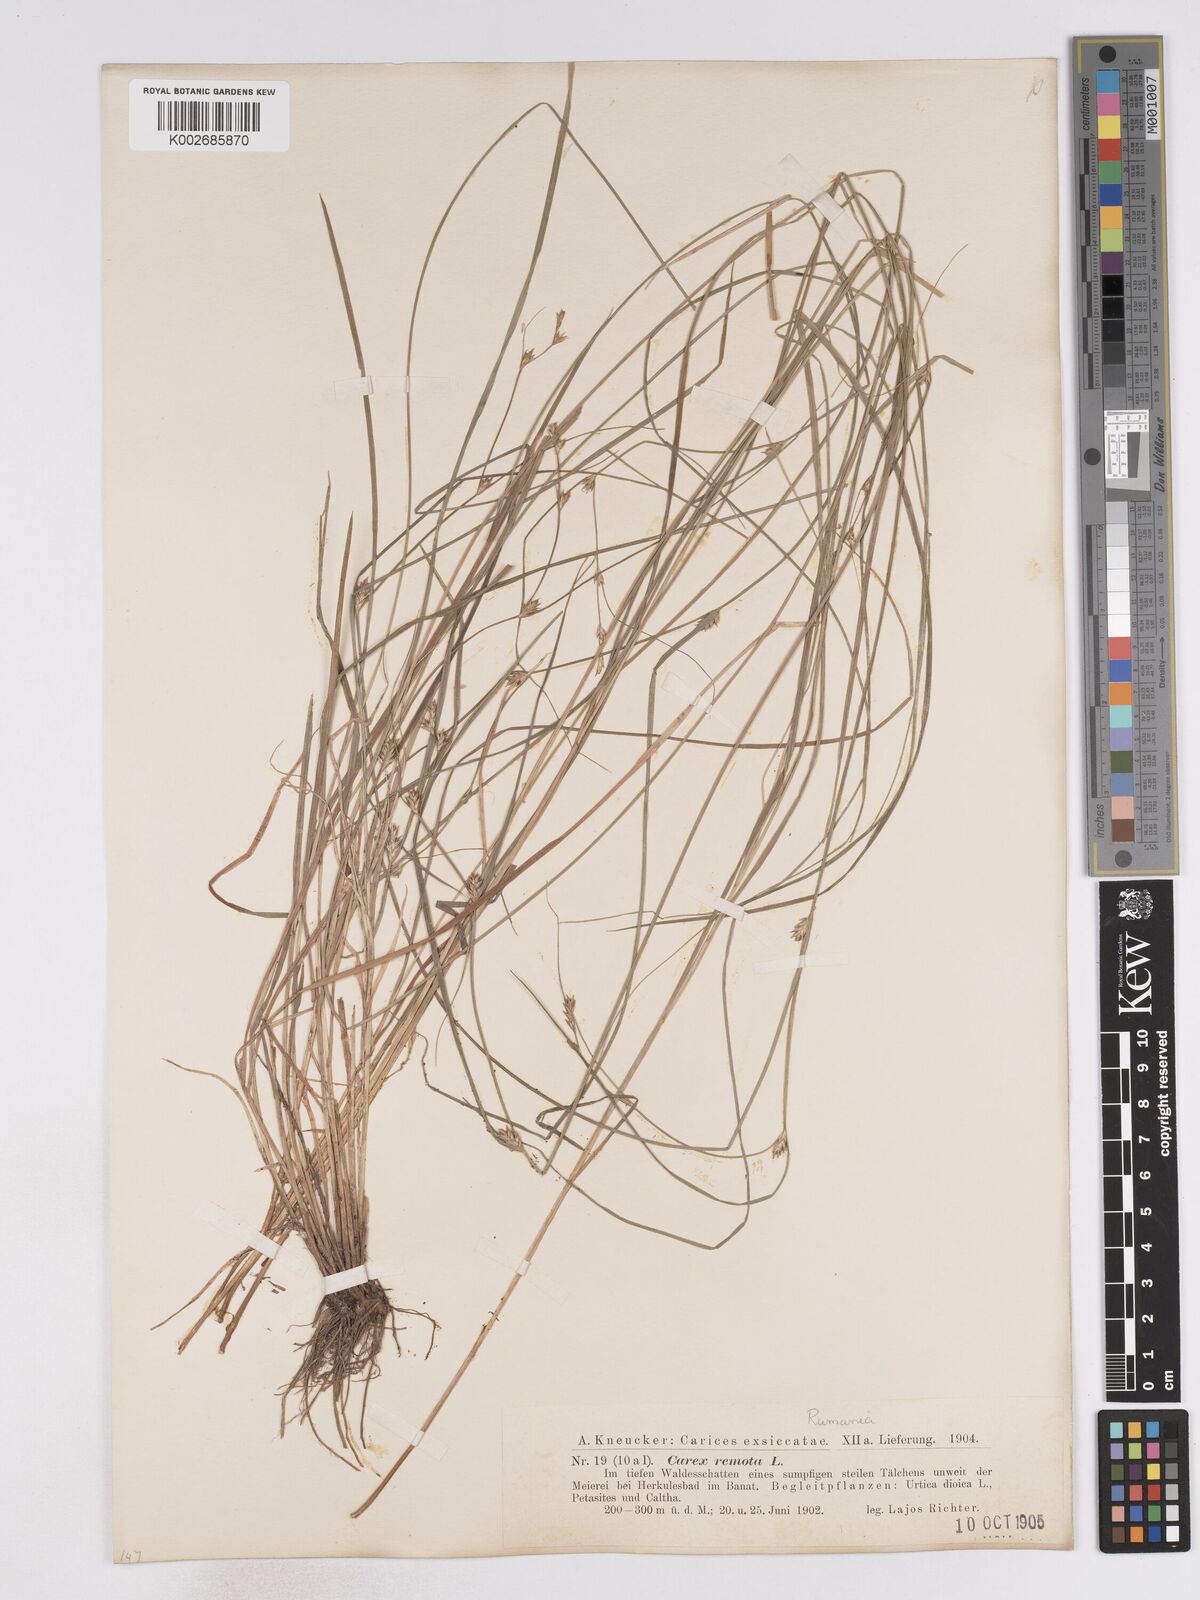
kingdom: Plantae
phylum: Tracheophyta
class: Liliopsida
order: Poales
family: Cyperaceae
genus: Carex
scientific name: Carex remota
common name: Remote sedge
